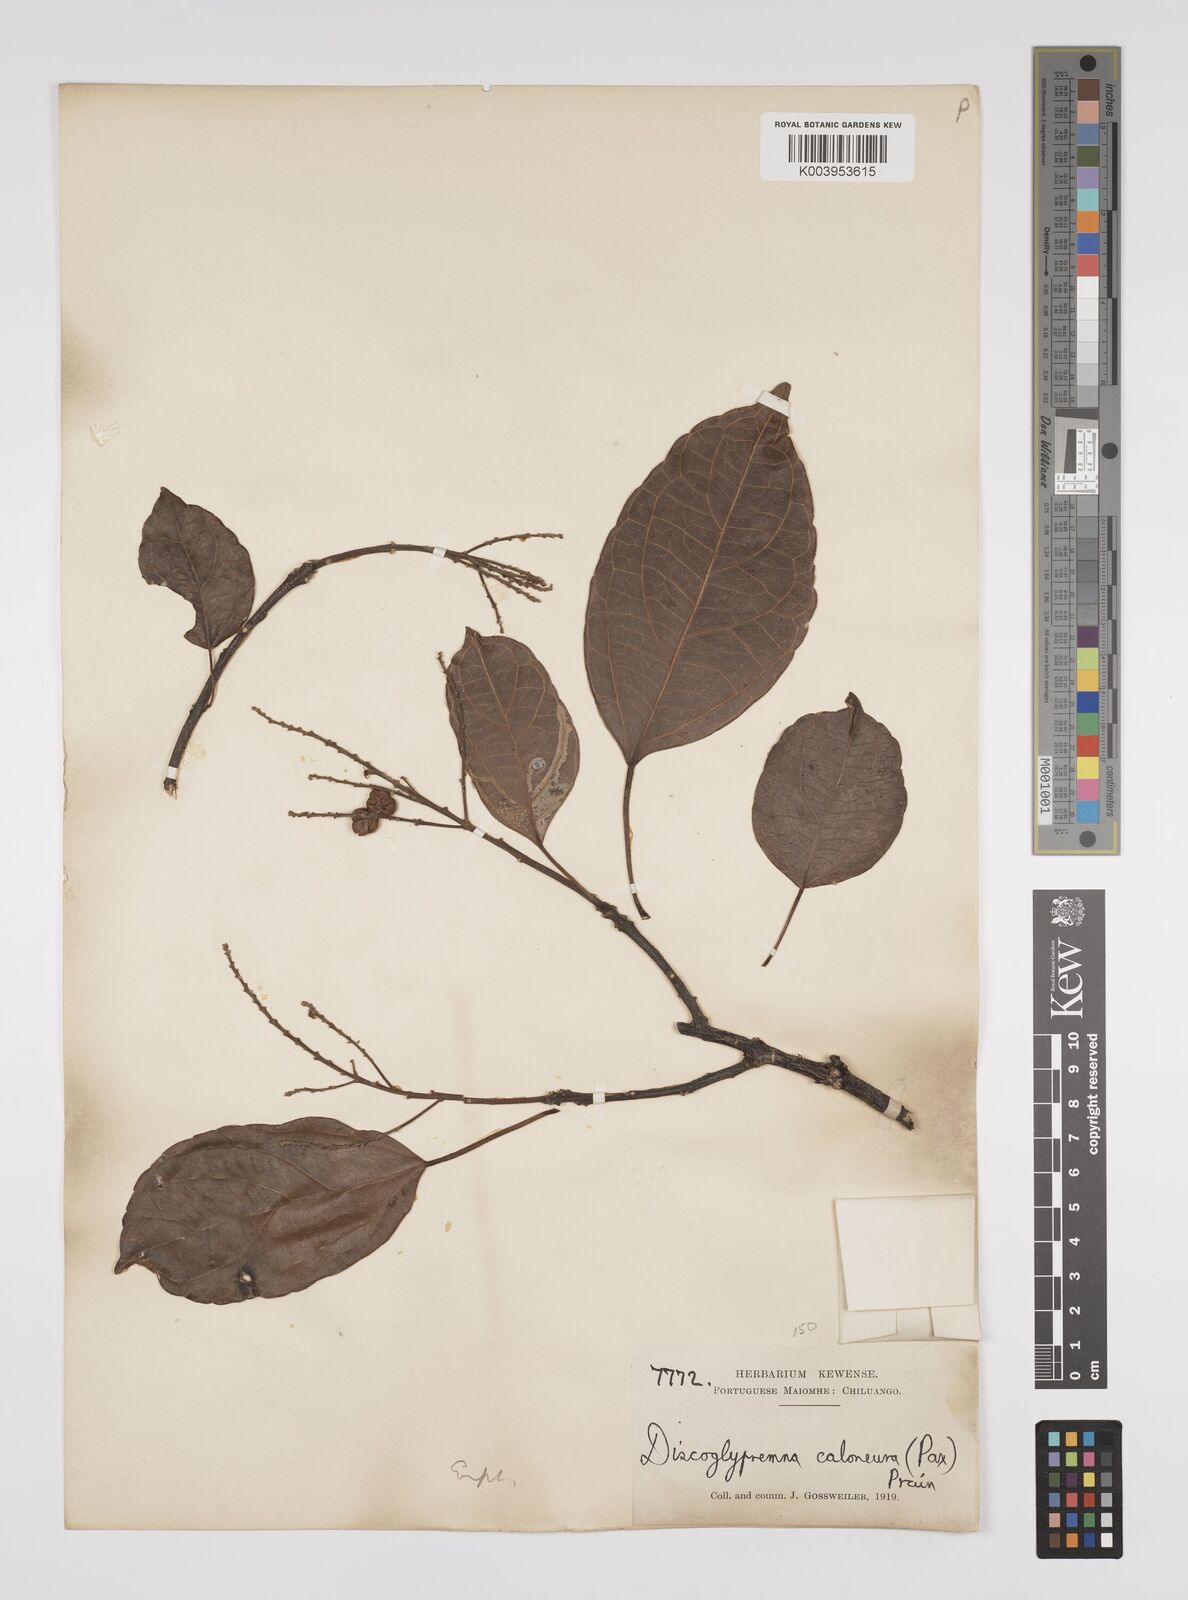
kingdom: Plantae
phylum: Tracheophyta
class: Magnoliopsida
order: Malpighiales
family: Euphorbiaceae
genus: Discoglypremna
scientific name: Discoglypremna caloneura
